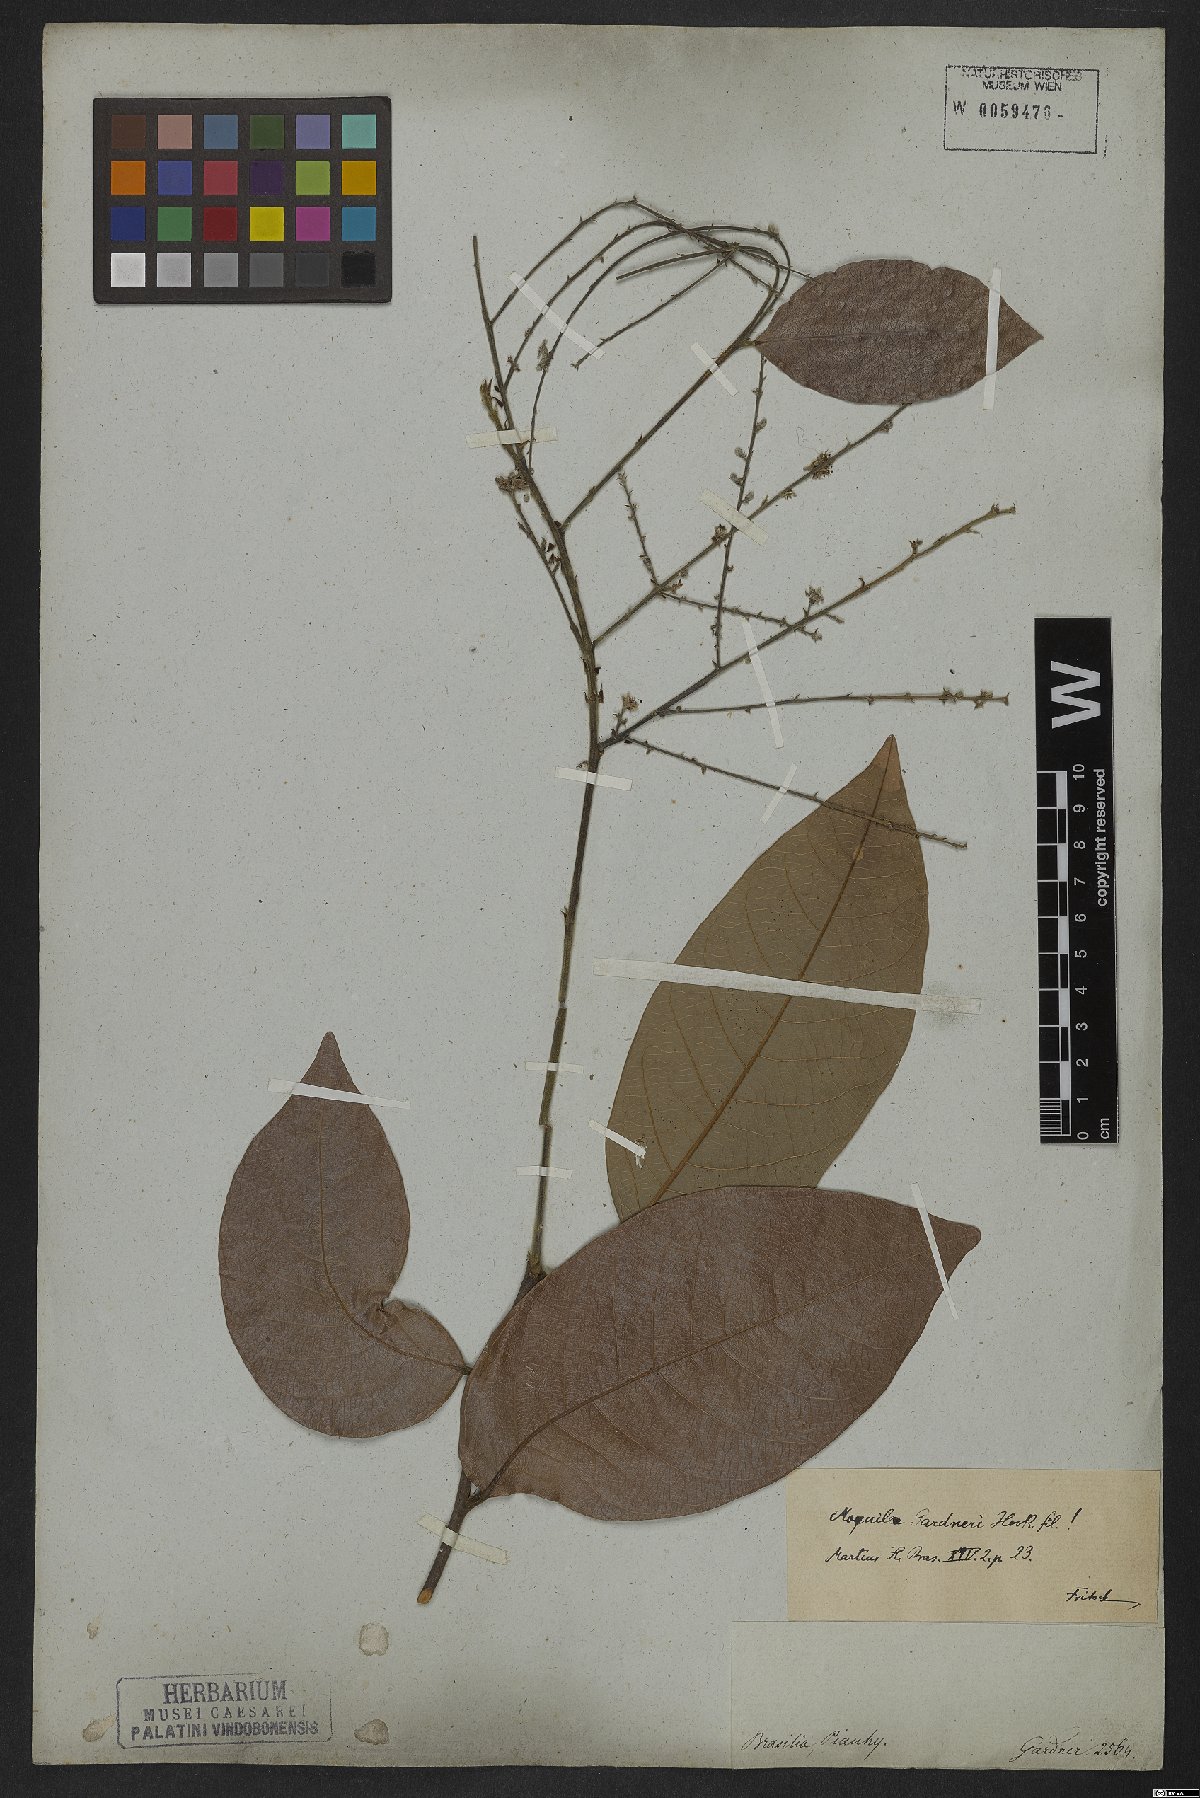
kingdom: Plantae
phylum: Tracheophyta
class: Magnoliopsida
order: Malpighiales
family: Chrysobalanaceae
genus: Leptobalanus
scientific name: Leptobalanus gardneri
